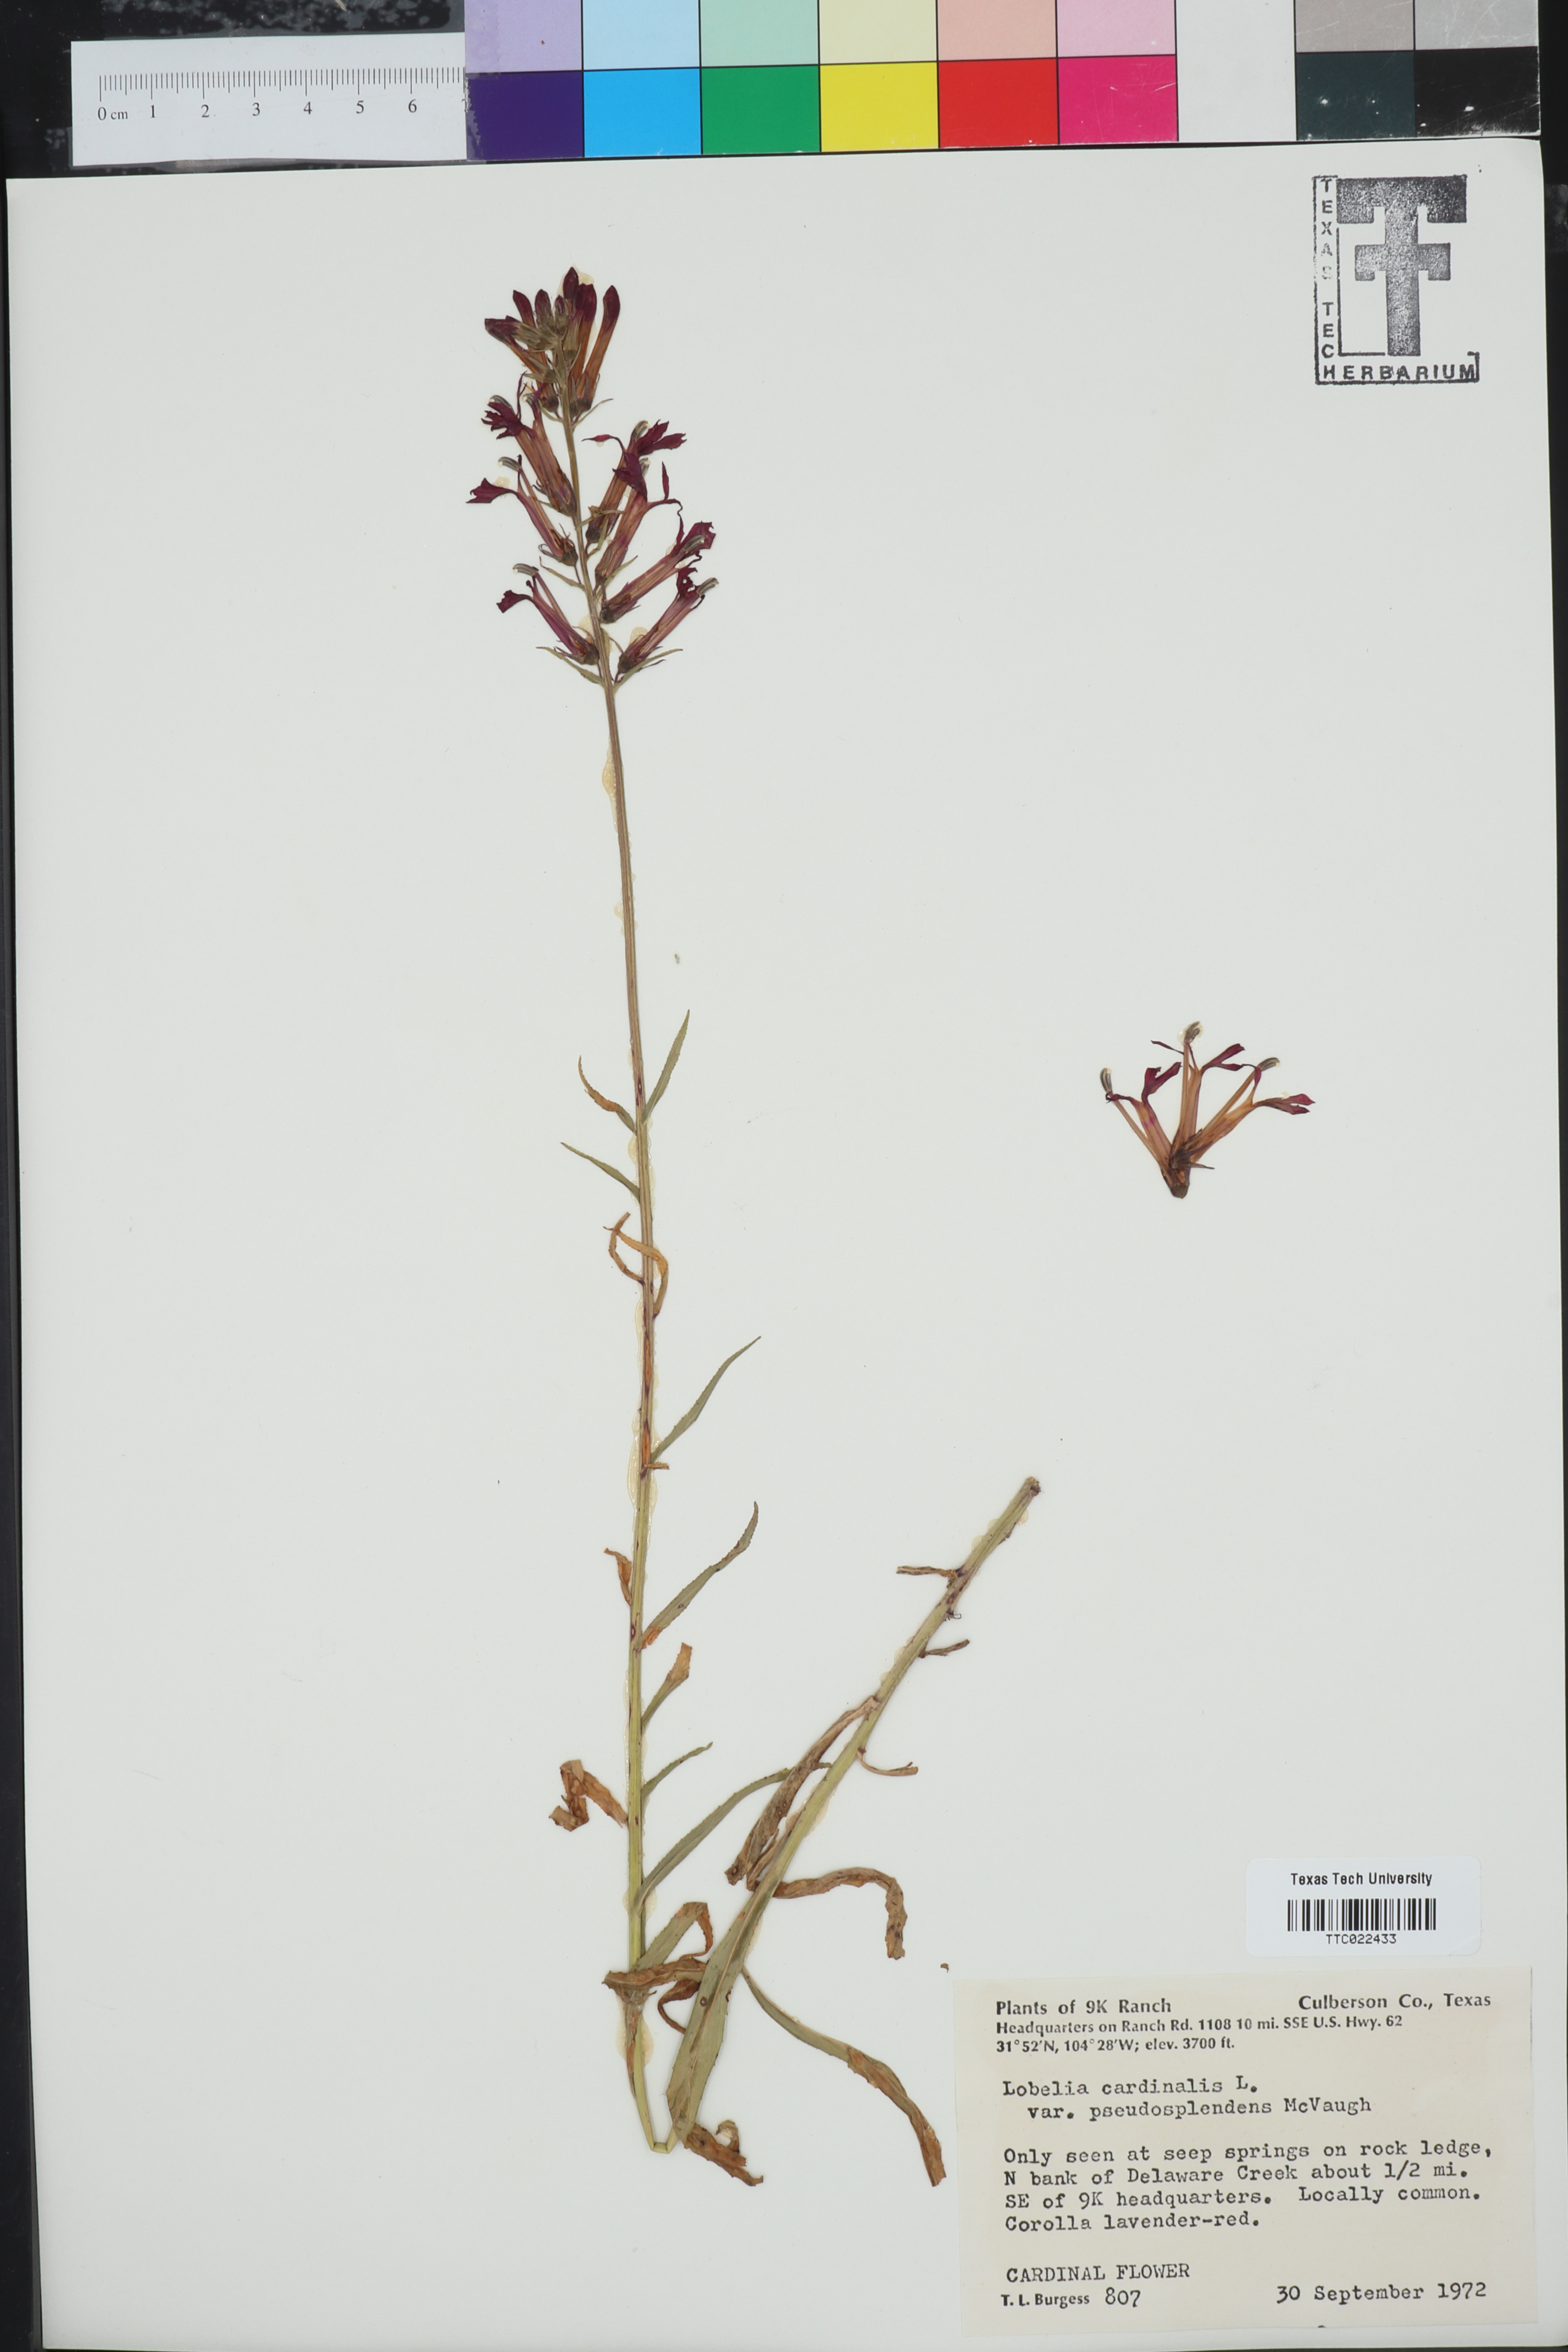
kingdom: Plantae
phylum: Tracheophyta
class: Magnoliopsida
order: Asterales
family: Campanulaceae
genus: Lobelia
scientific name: Lobelia cardinalis
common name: Cardinal flower
